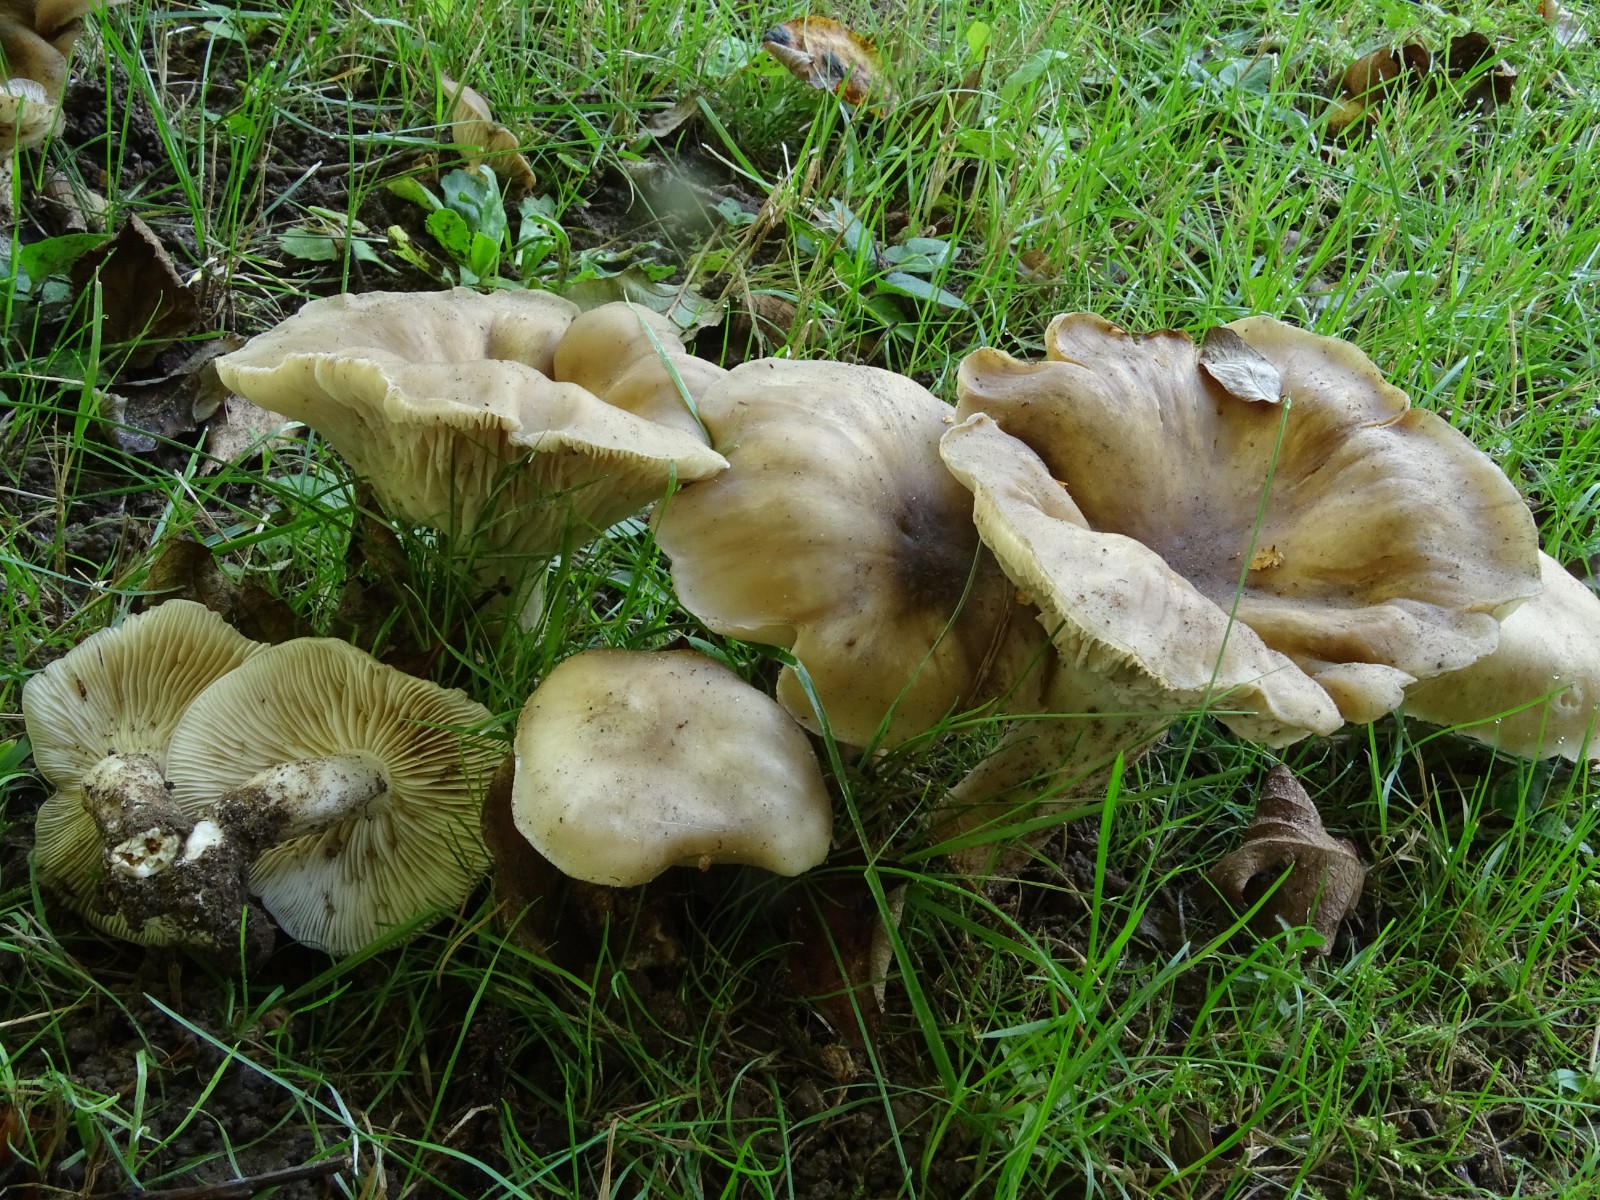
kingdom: Fungi
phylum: Basidiomycota
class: Agaricomycetes
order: Agaricales
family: Lyophyllaceae
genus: Lyophyllum
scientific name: Lyophyllum decastes
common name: røggrå gråblad
